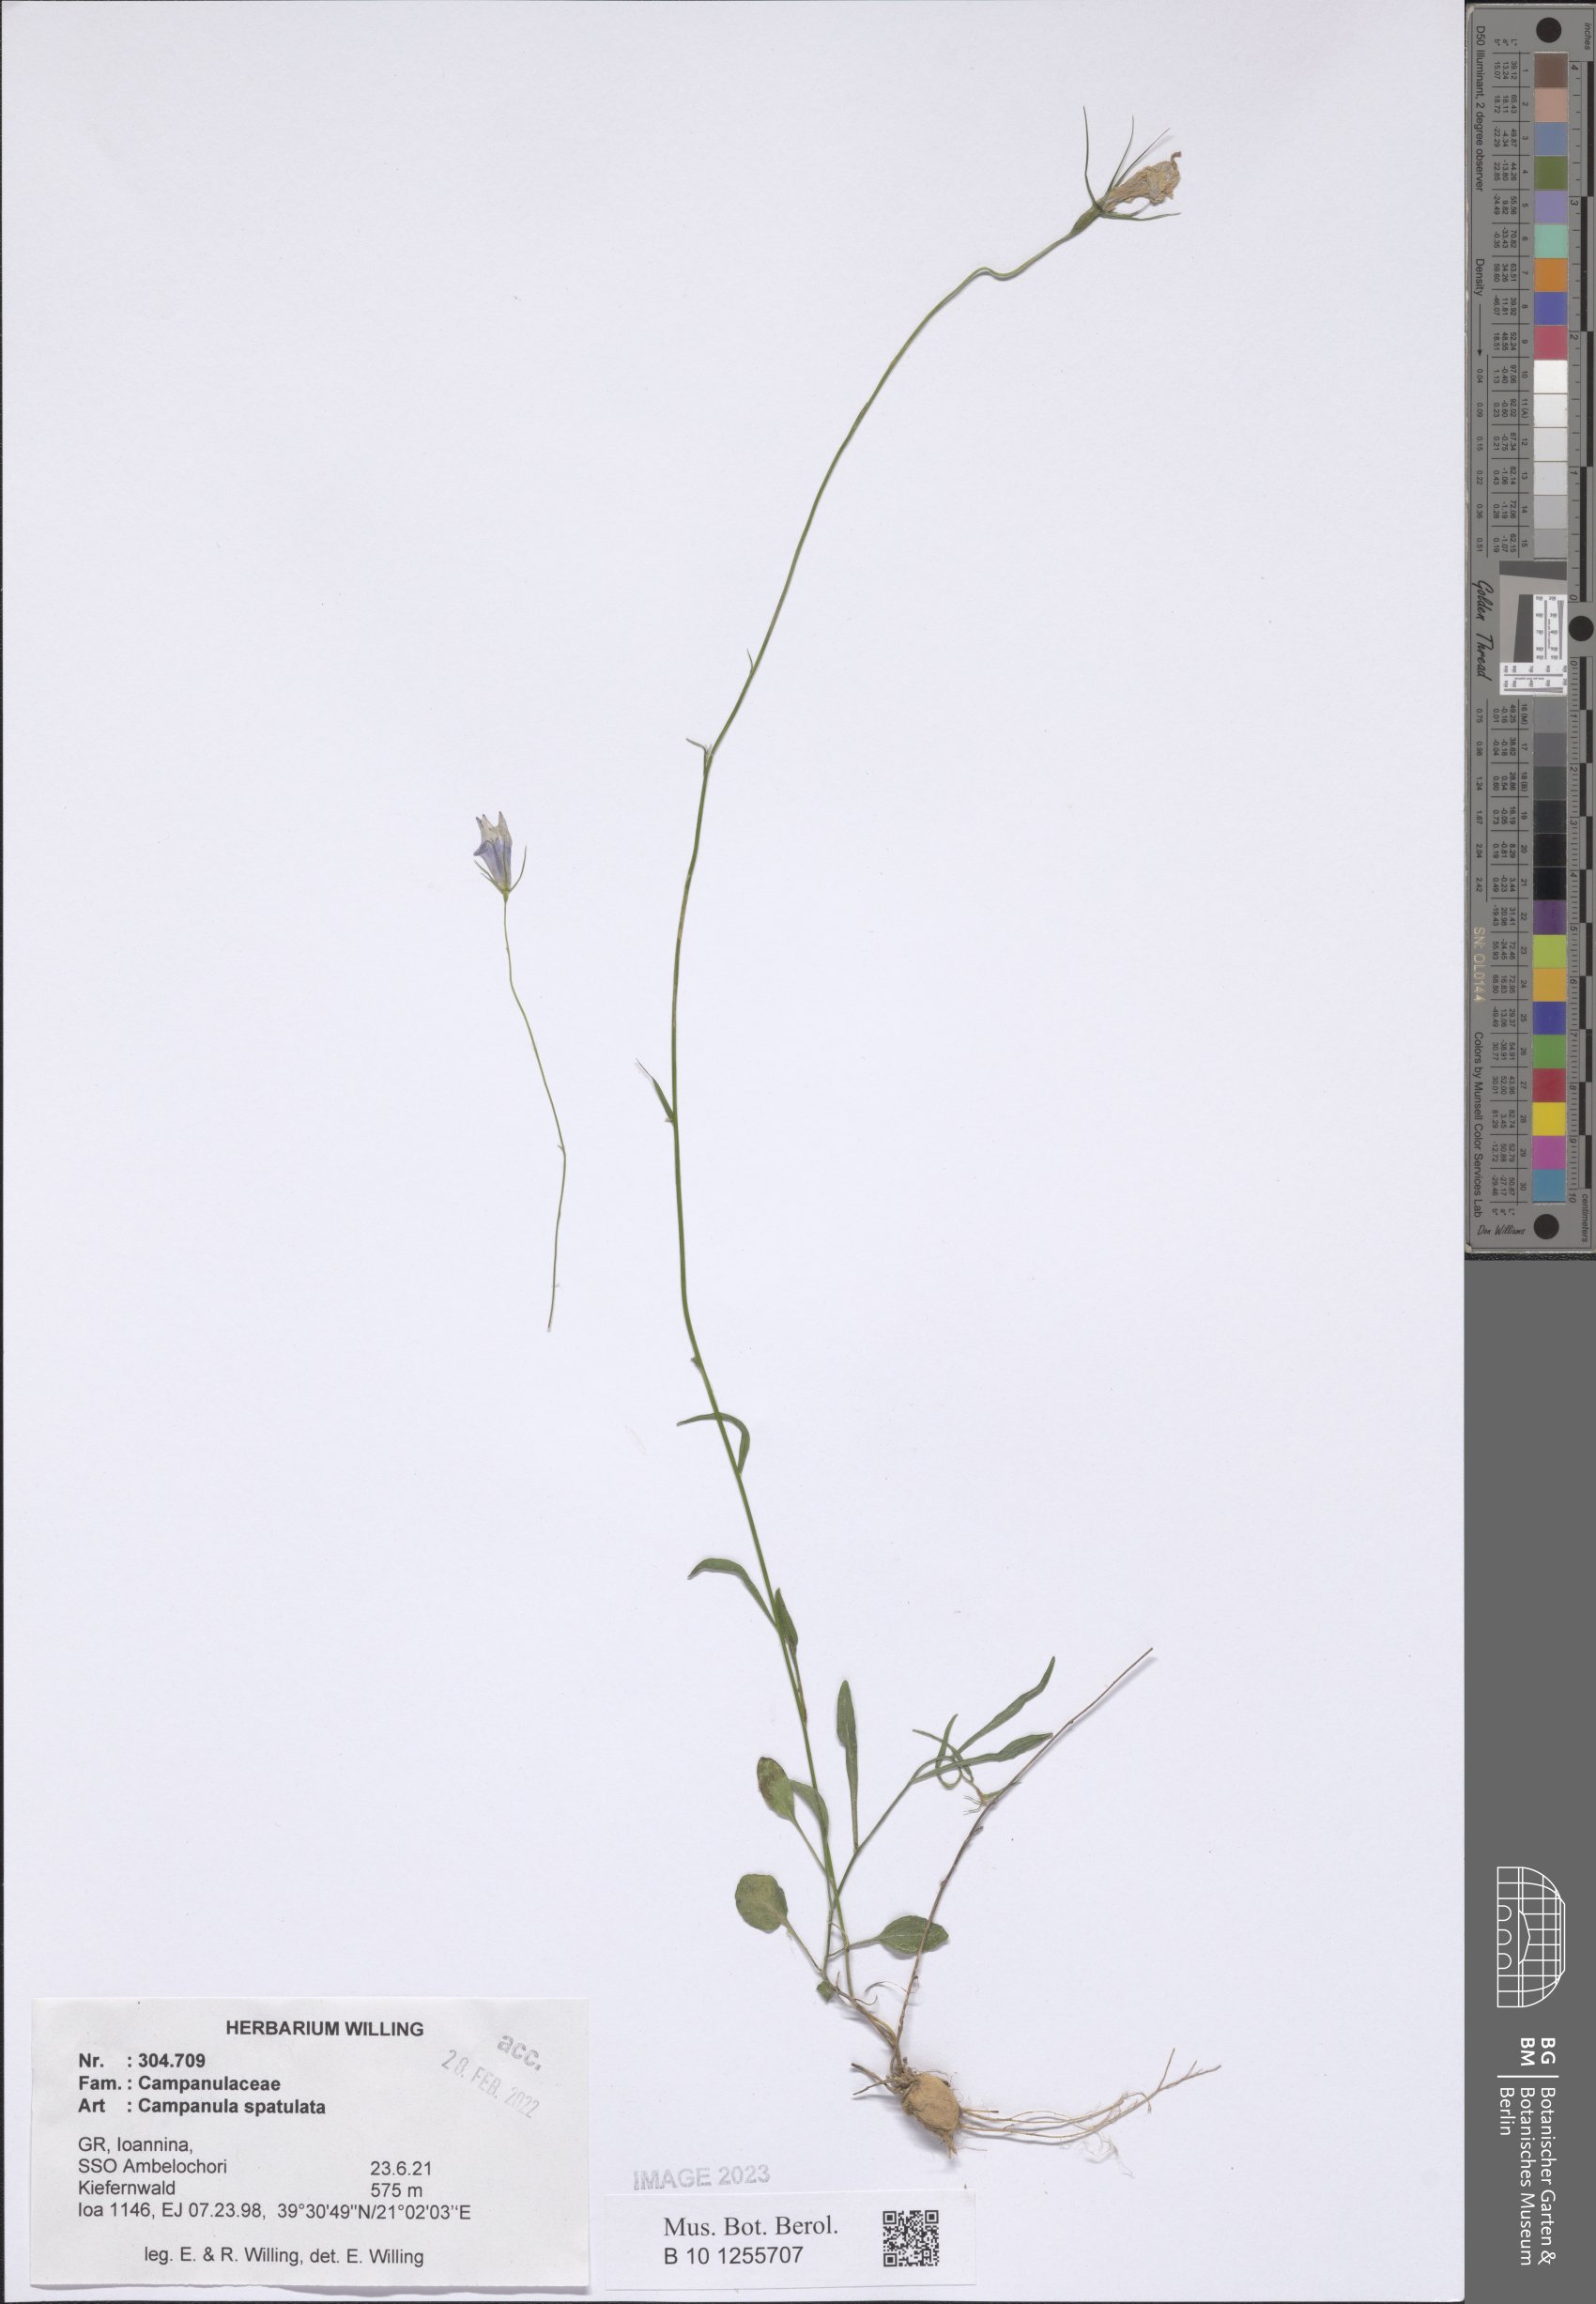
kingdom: Plantae
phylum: Tracheophyta
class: Magnoliopsida
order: Asterales
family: Campanulaceae
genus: Campanula
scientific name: Campanula spatulata
